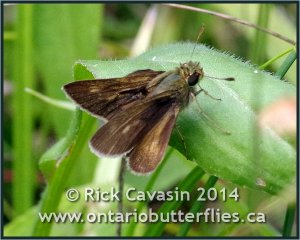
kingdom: Animalia
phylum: Arthropoda
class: Insecta
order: Lepidoptera
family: Hesperiidae
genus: Polites
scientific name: Polites egeremet
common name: Northern Broken-Dash
